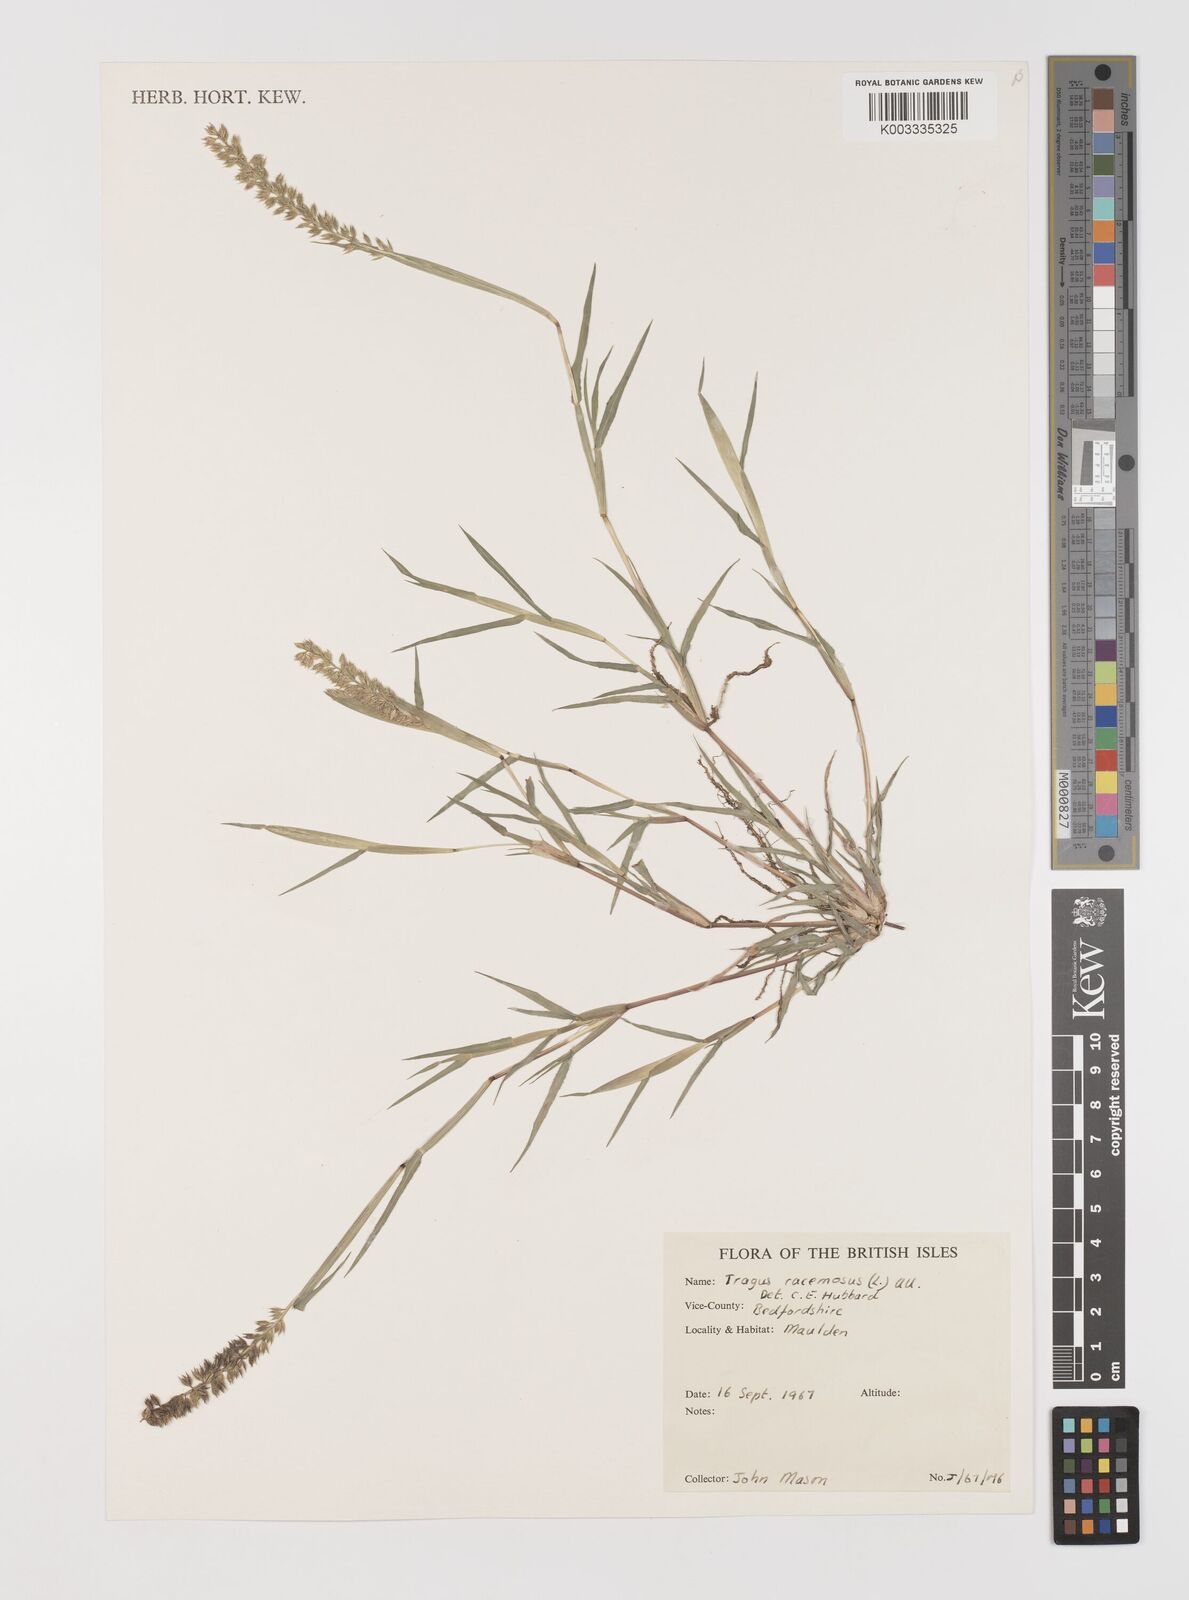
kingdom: Plantae
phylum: Tracheophyta
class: Liliopsida
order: Poales
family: Poaceae
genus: Tragus
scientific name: Tragus racemosus
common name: European bur-grass
